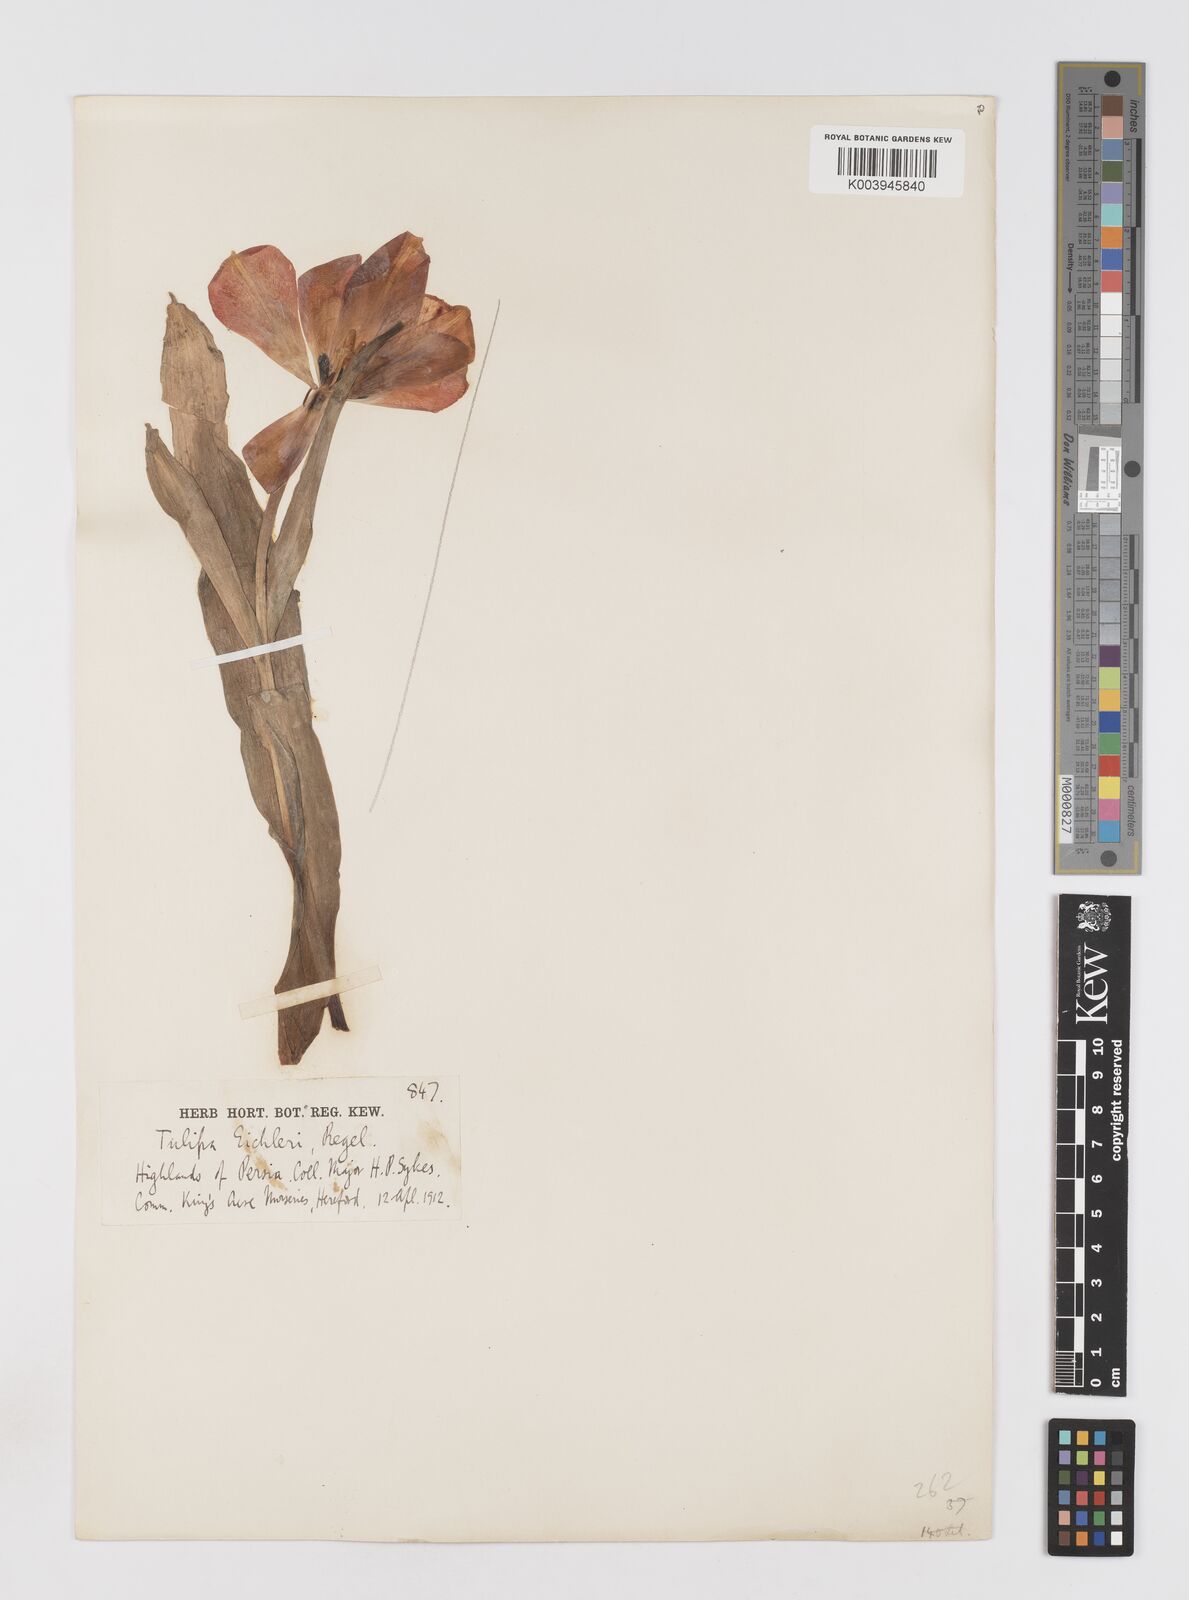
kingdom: Plantae
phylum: Tracheophyta
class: Liliopsida
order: Liliales
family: Liliaceae
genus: Tulipa
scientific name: Tulipa undulatifolia
